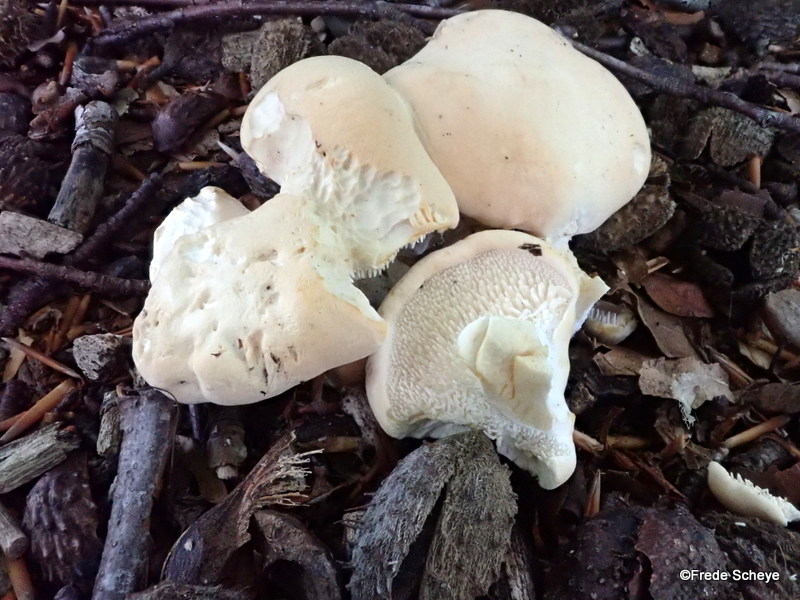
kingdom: Fungi
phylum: Basidiomycota
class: Agaricomycetes
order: Cantharellales
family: Hydnaceae
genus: Hydnum
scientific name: Hydnum repandum
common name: almindelig pigsvamp
